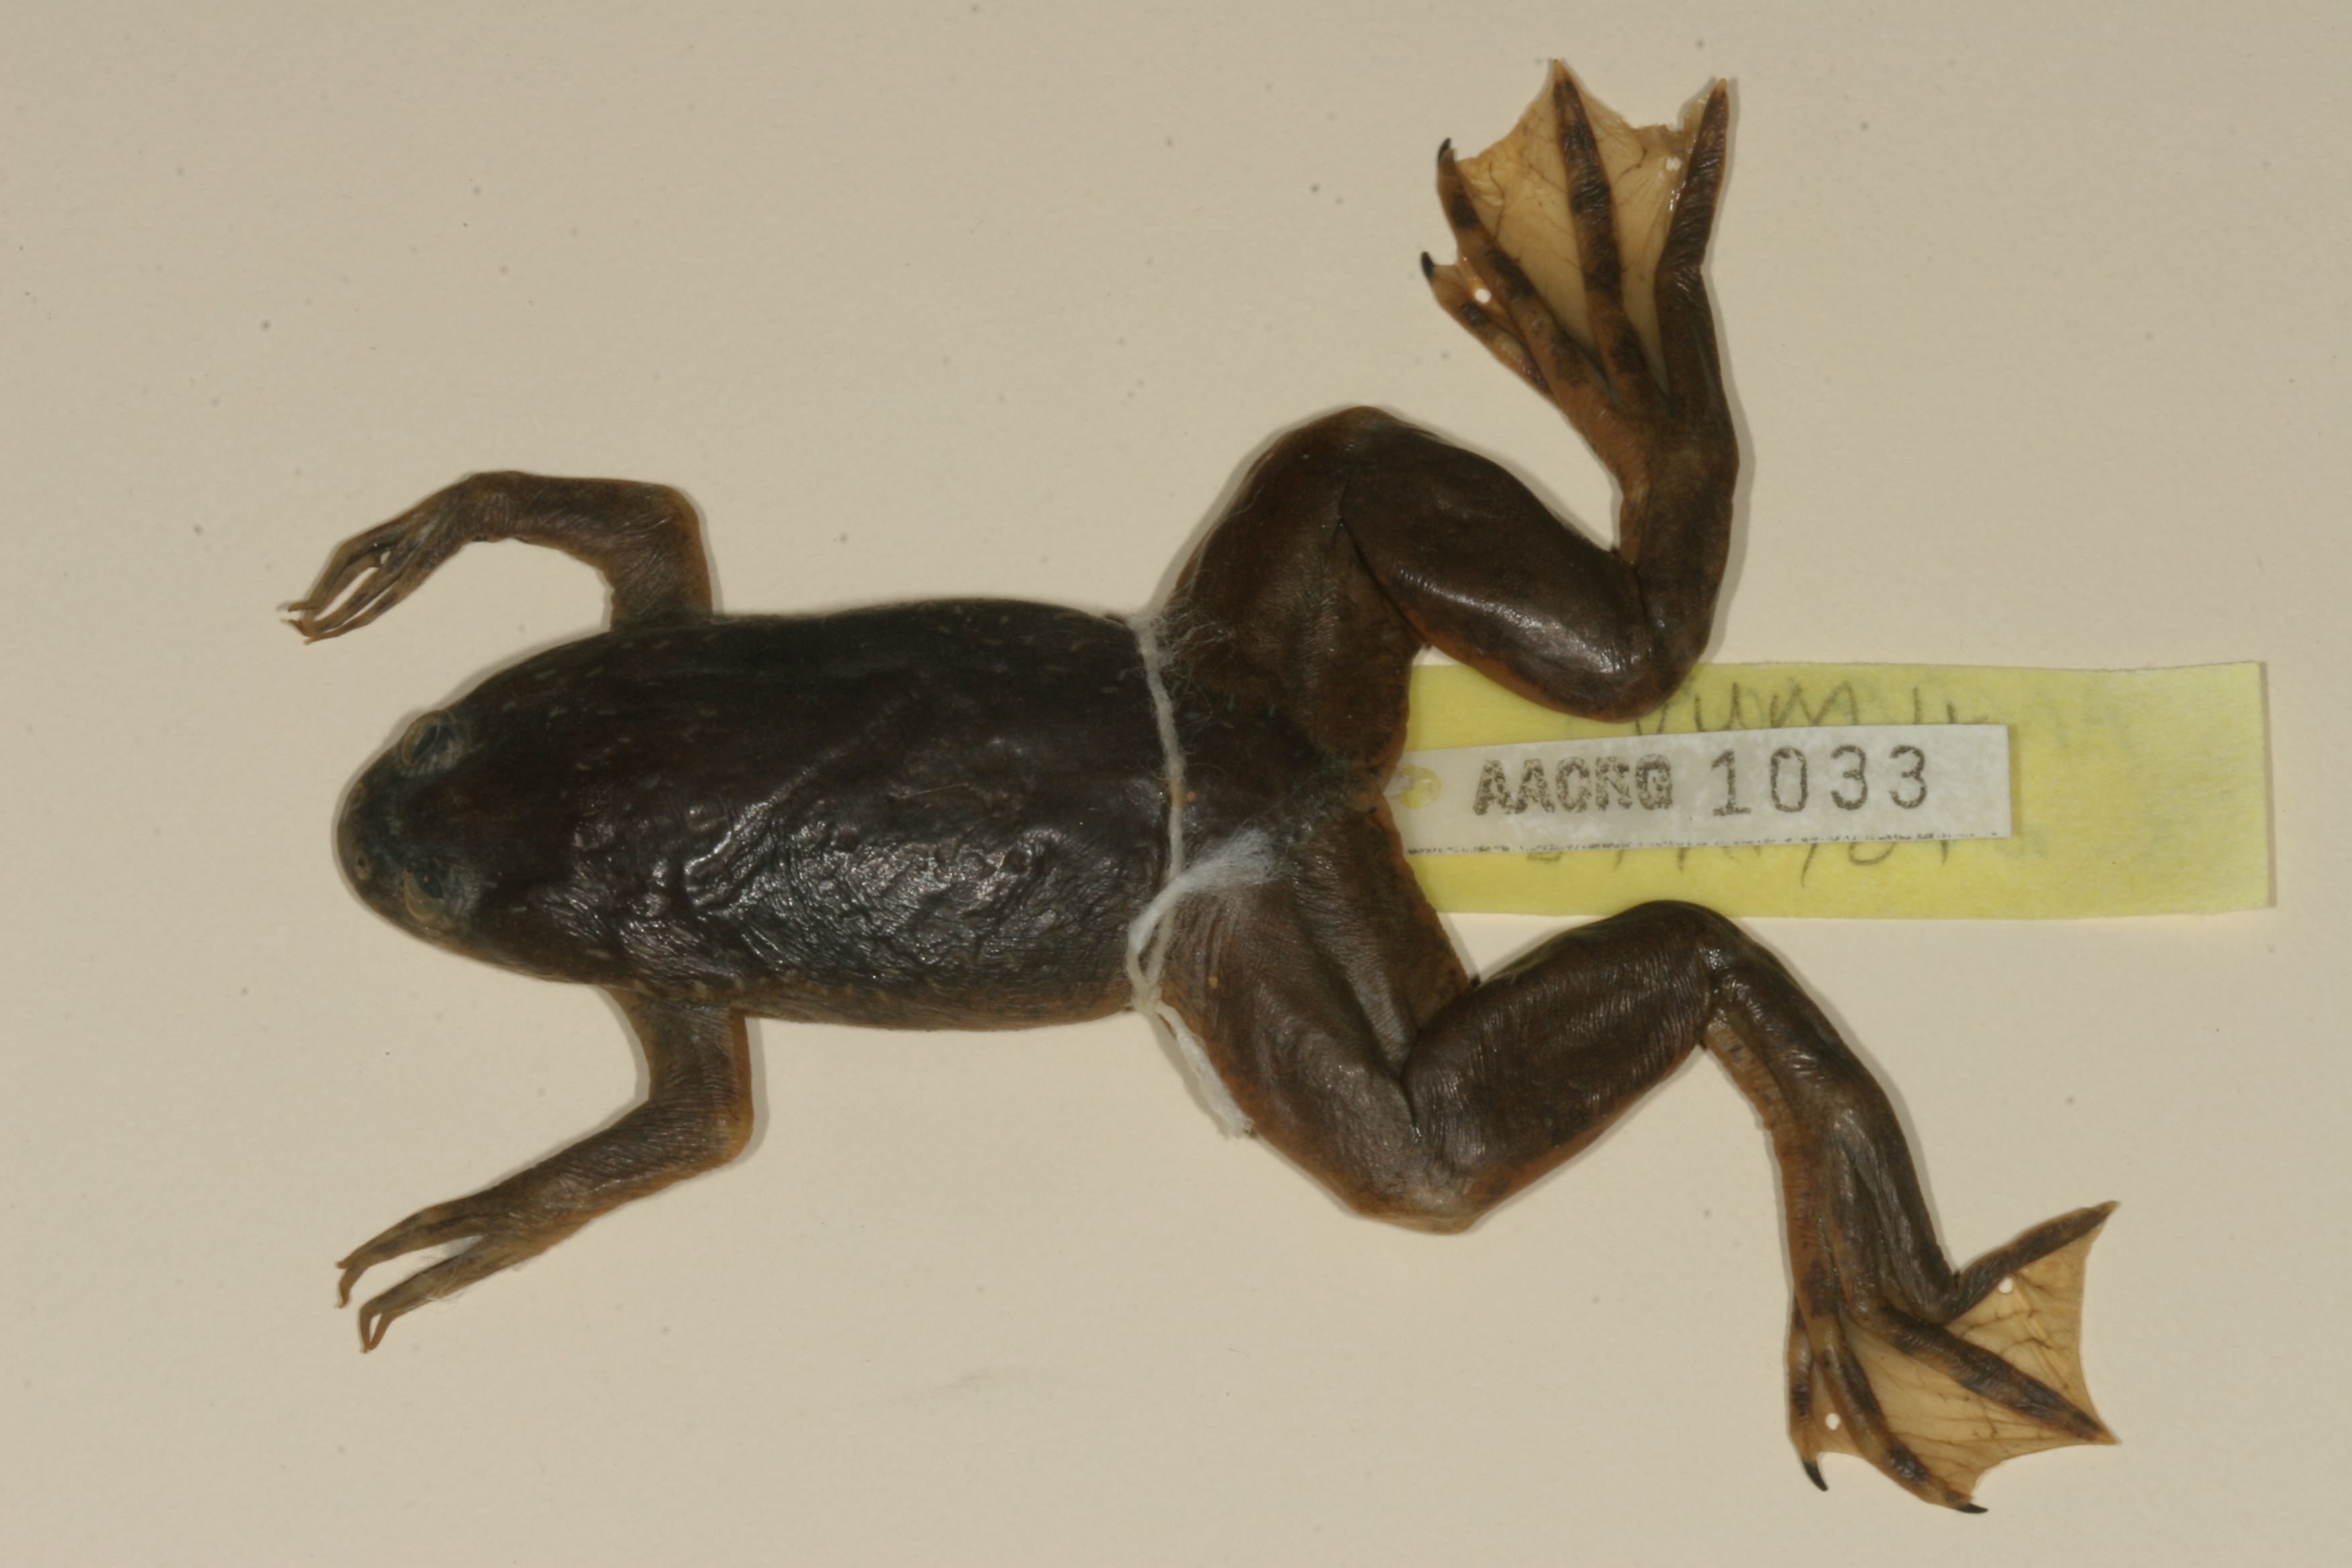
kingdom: Animalia
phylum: Chordata
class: Amphibia
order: Anura
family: Pipidae
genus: Xenopus
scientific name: Xenopus muelleri
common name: Muller's clawed frog
